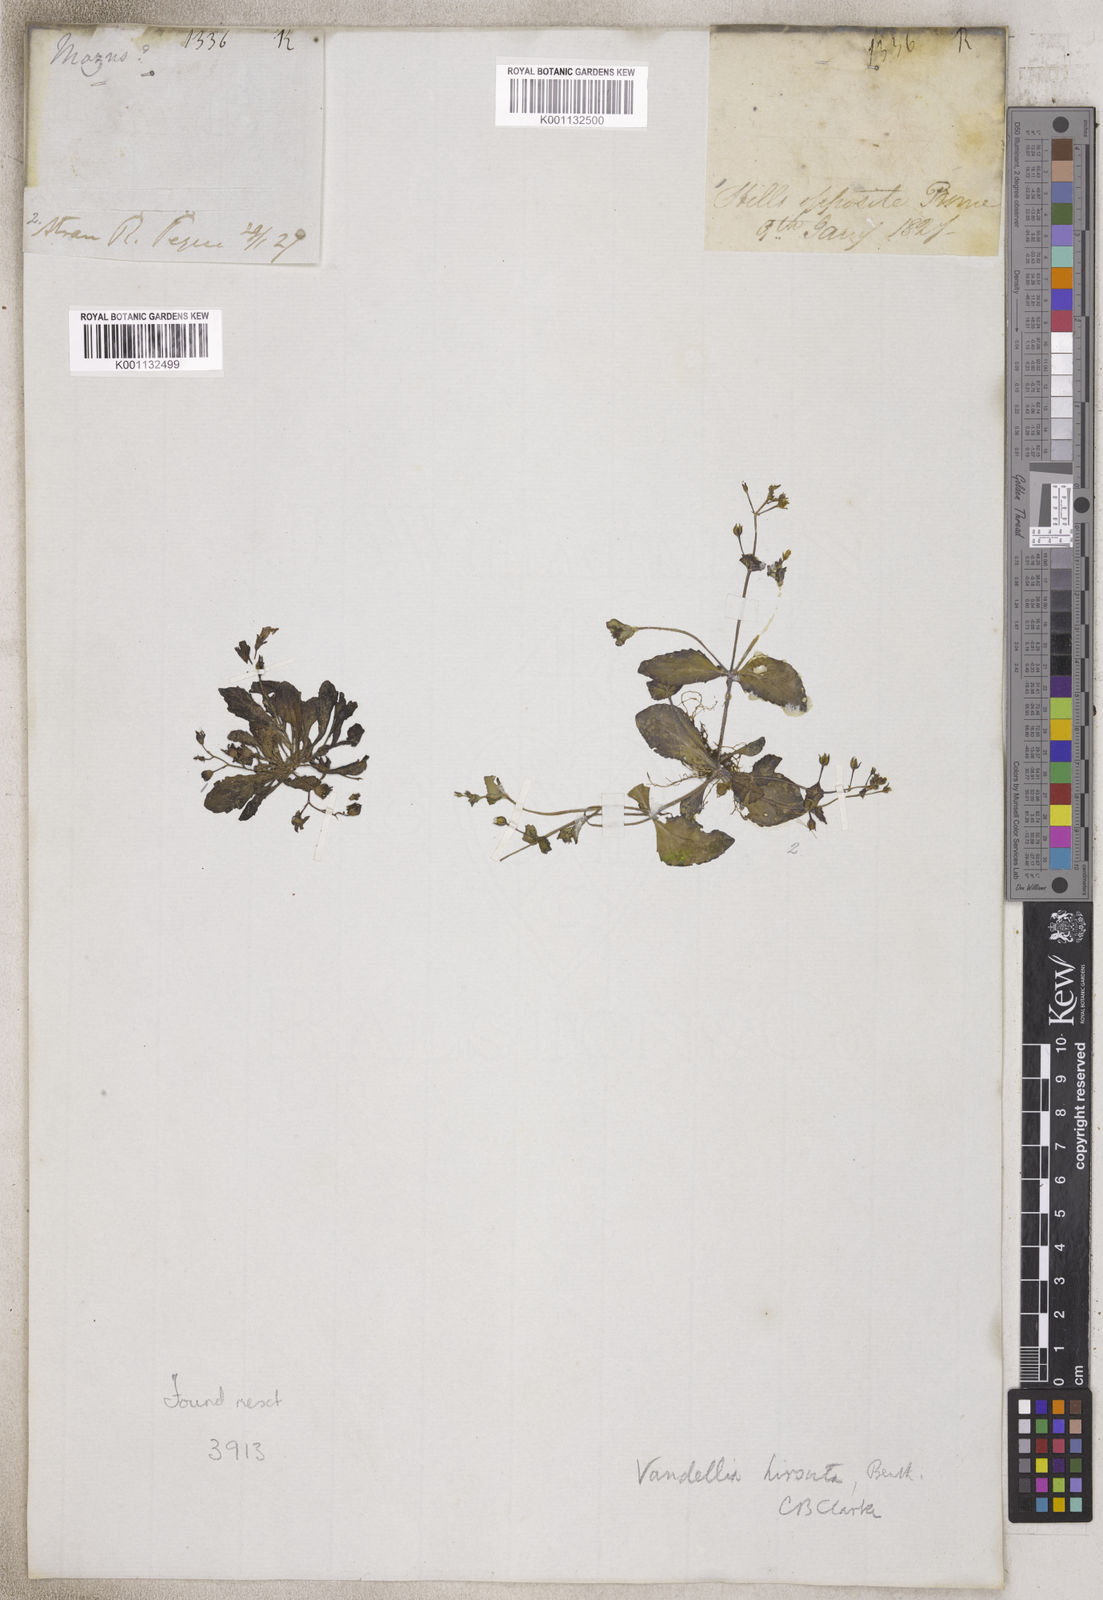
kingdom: Plantae
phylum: Tracheophyta
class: Magnoliopsida
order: Lamiales
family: Mazaceae
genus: Mazus
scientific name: Mazus
